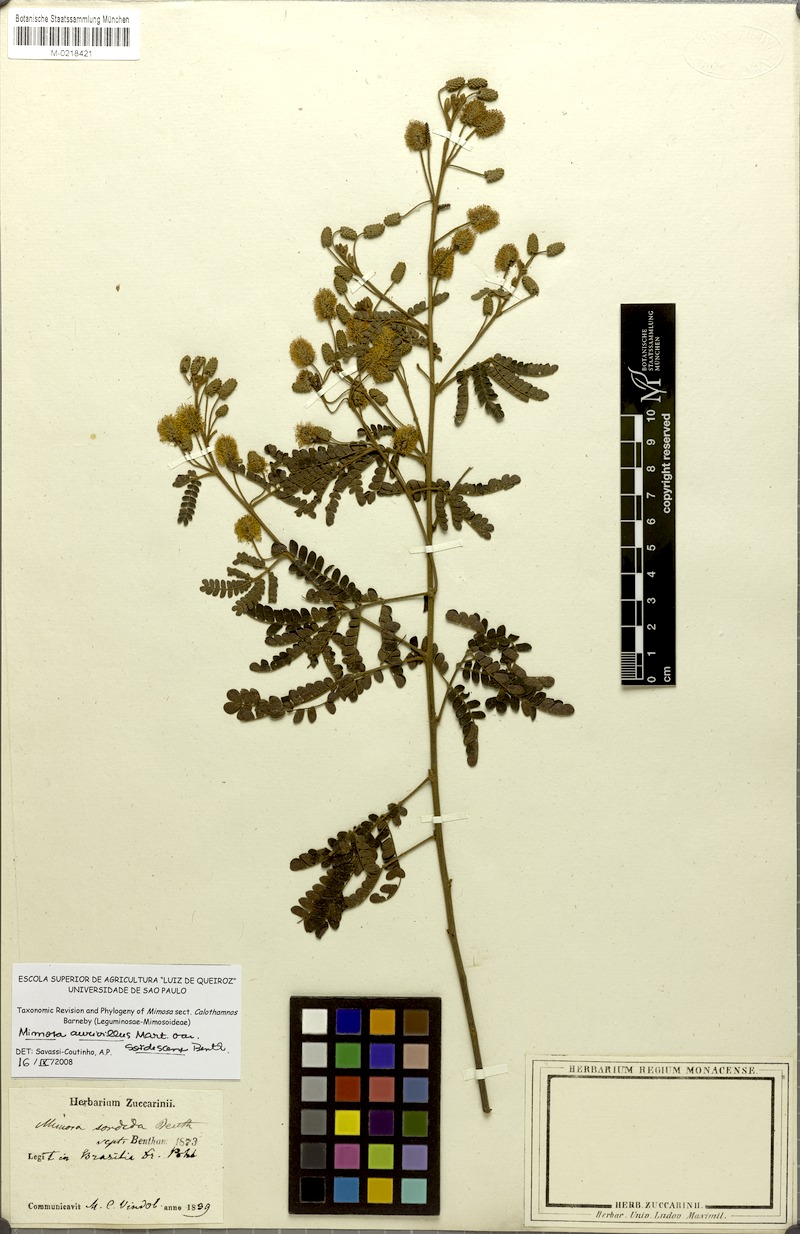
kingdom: Plantae
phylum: Tracheophyta
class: Magnoliopsida
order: Fabales
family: Fabaceae
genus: Mimosa
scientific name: Mimosa aurivillus
